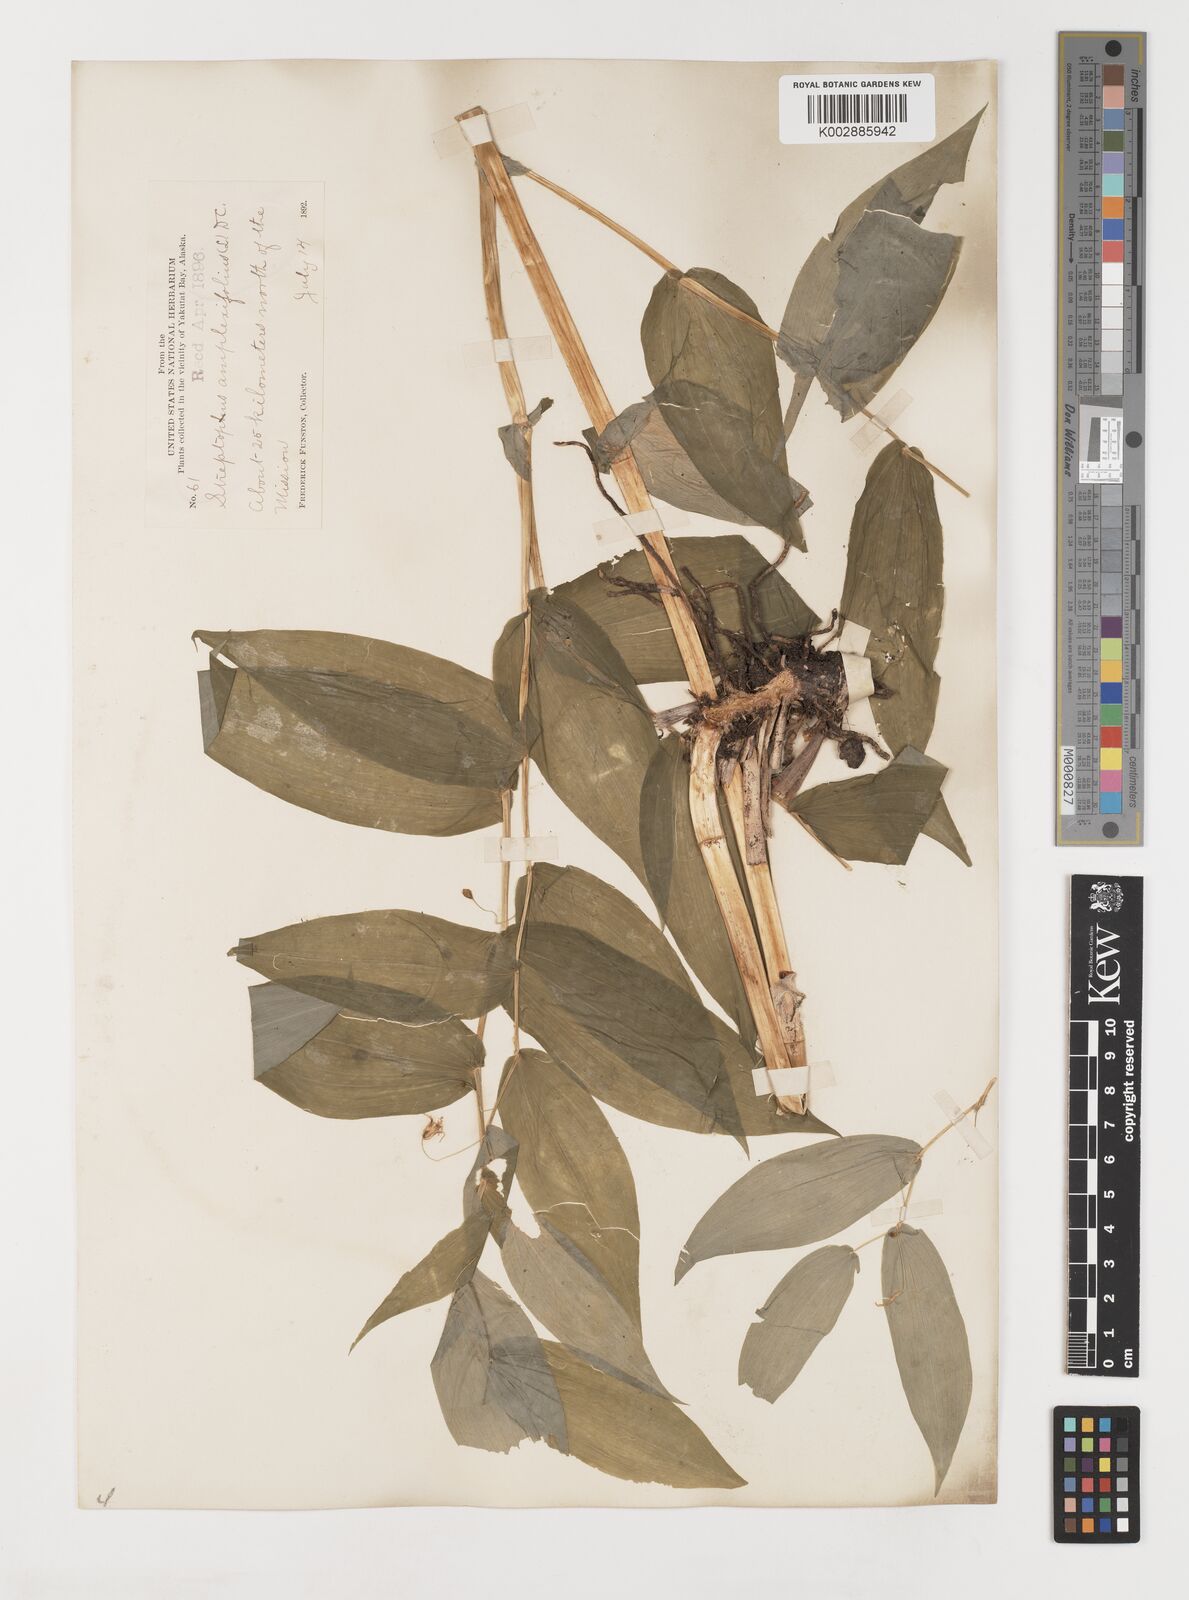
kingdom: Plantae
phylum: Tracheophyta
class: Liliopsida
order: Liliales
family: Liliaceae
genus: Streptopus
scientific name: Streptopus amplexifolius
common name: Clasp twisted stalk
